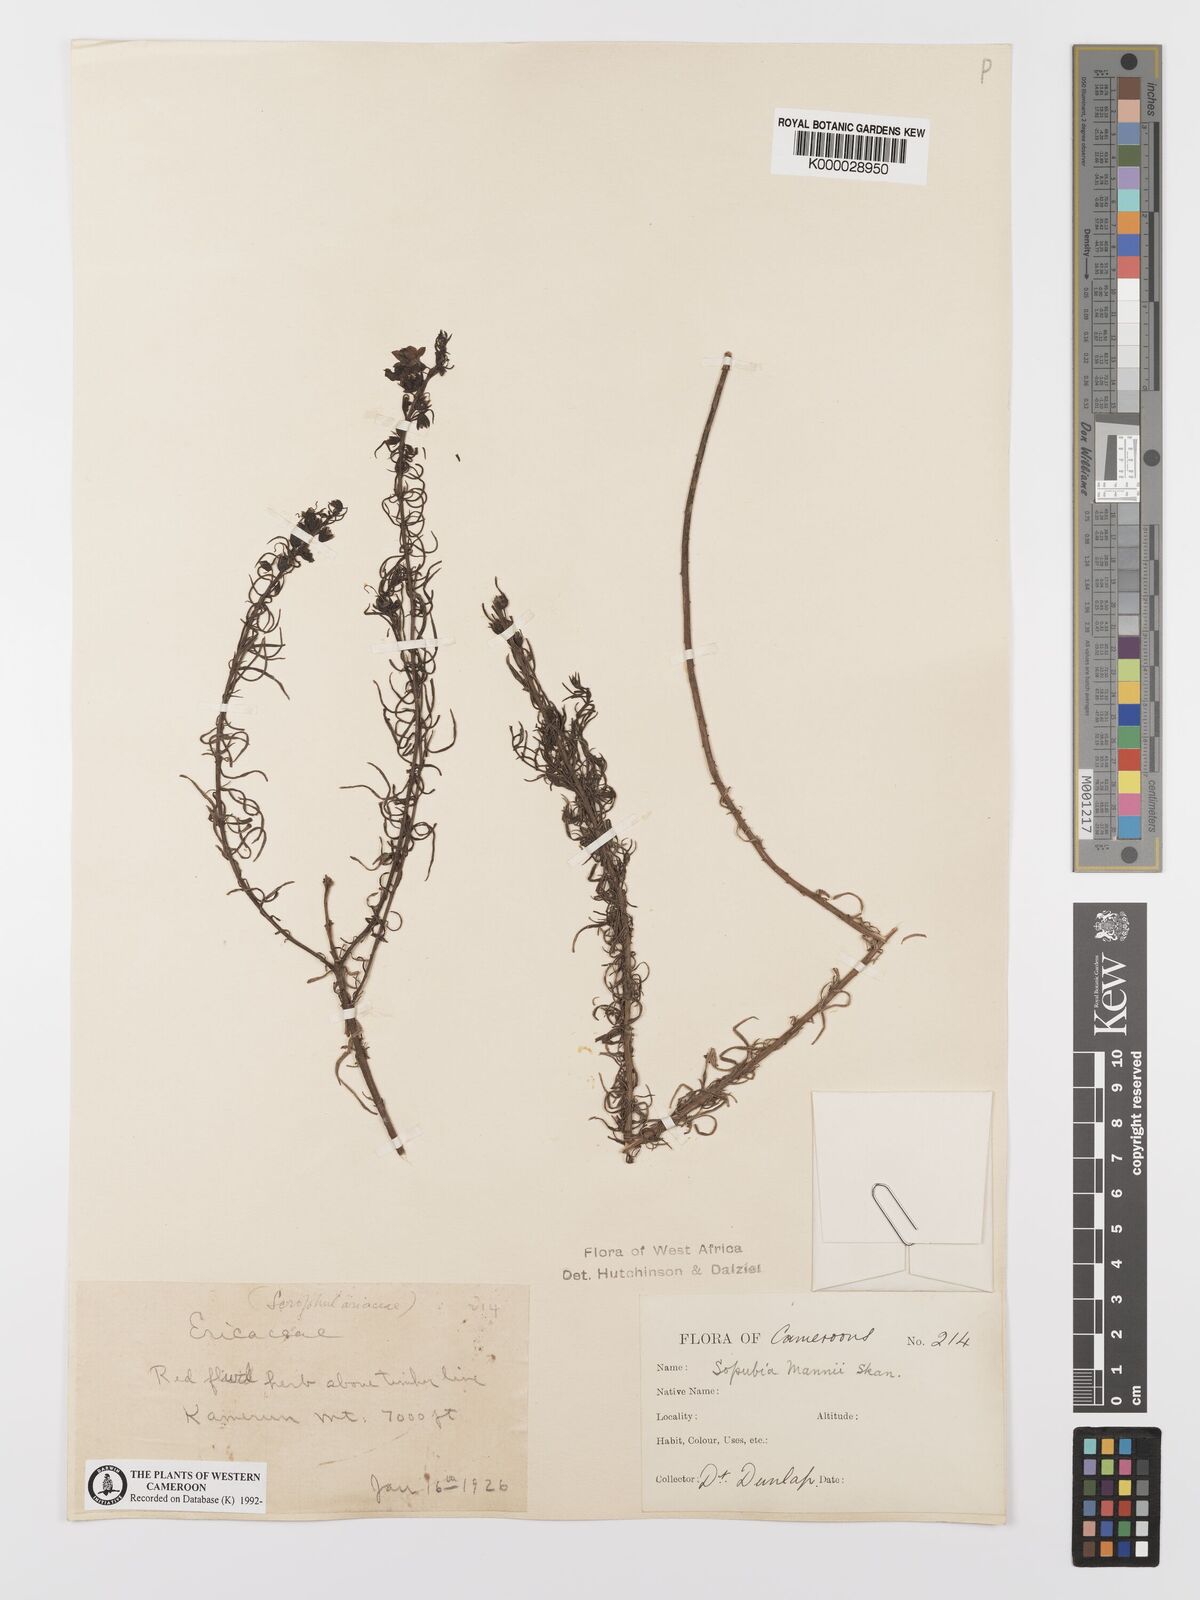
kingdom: Plantae
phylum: Tracheophyta
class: Magnoliopsida
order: Lamiales
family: Orobanchaceae
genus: Sopubia
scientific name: Sopubia mannii
